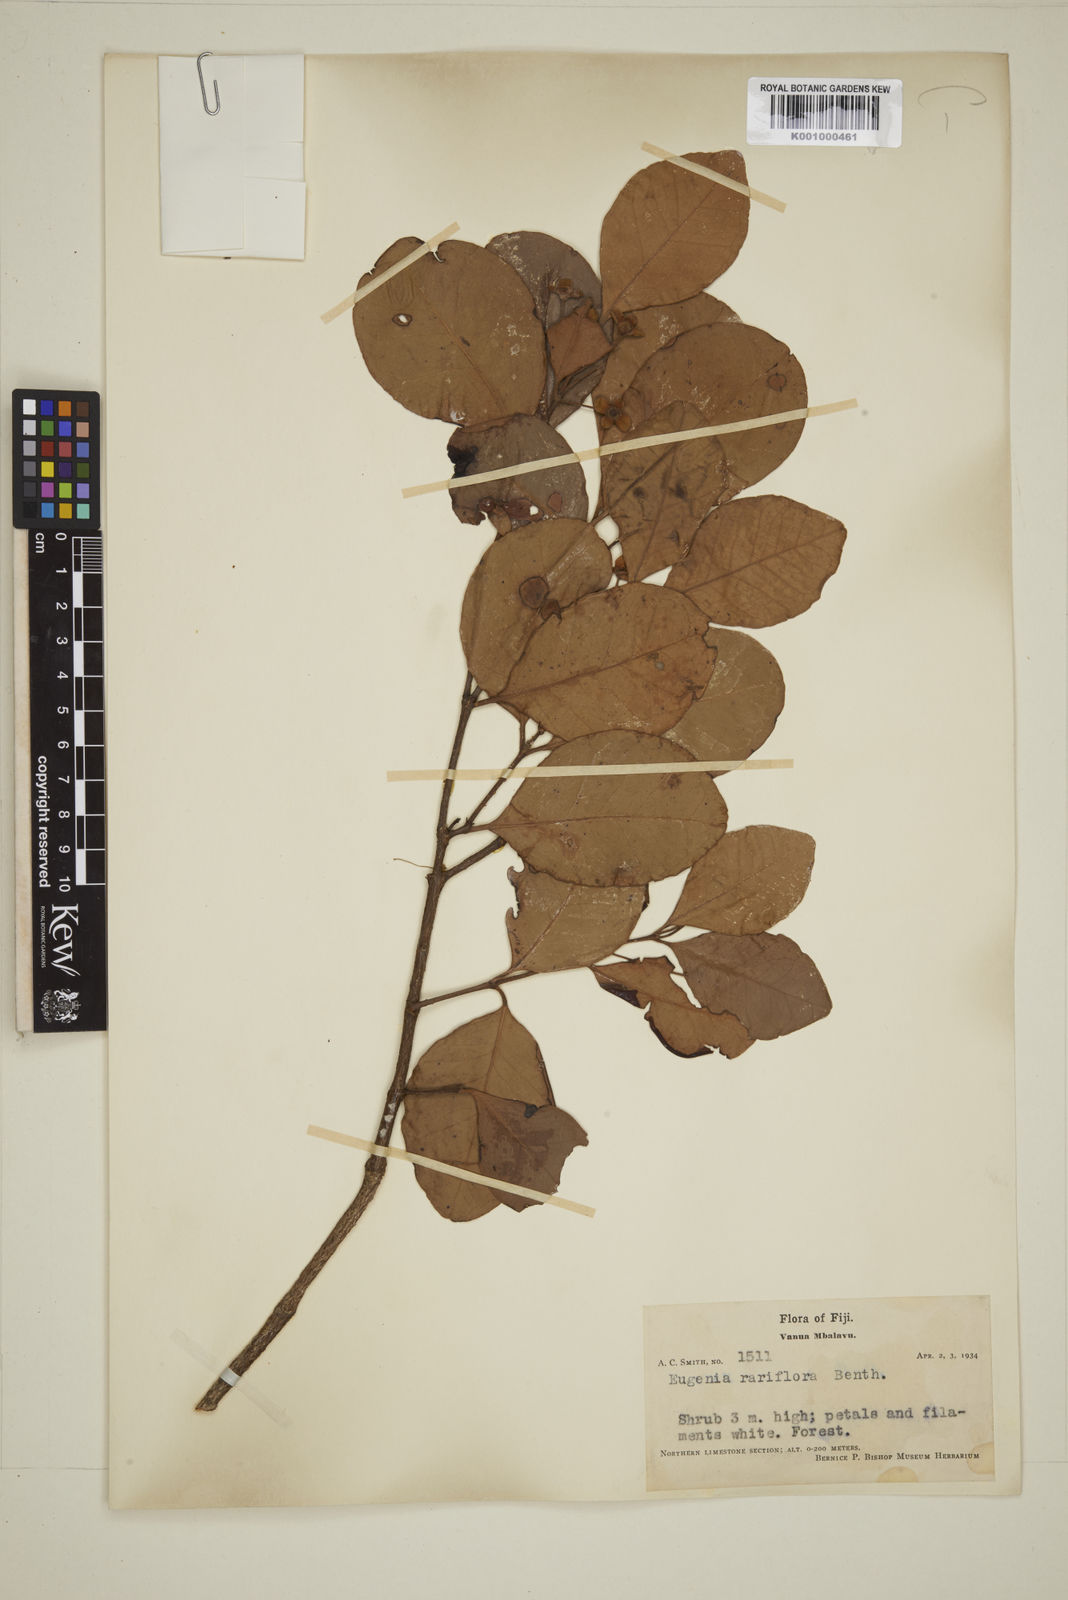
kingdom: Plantae
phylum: Tracheophyta
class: Magnoliopsida
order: Myrtales
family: Myrtaceae
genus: Eugenia
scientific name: Eugenia reinwardtiana
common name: Cedar bay-cherry
